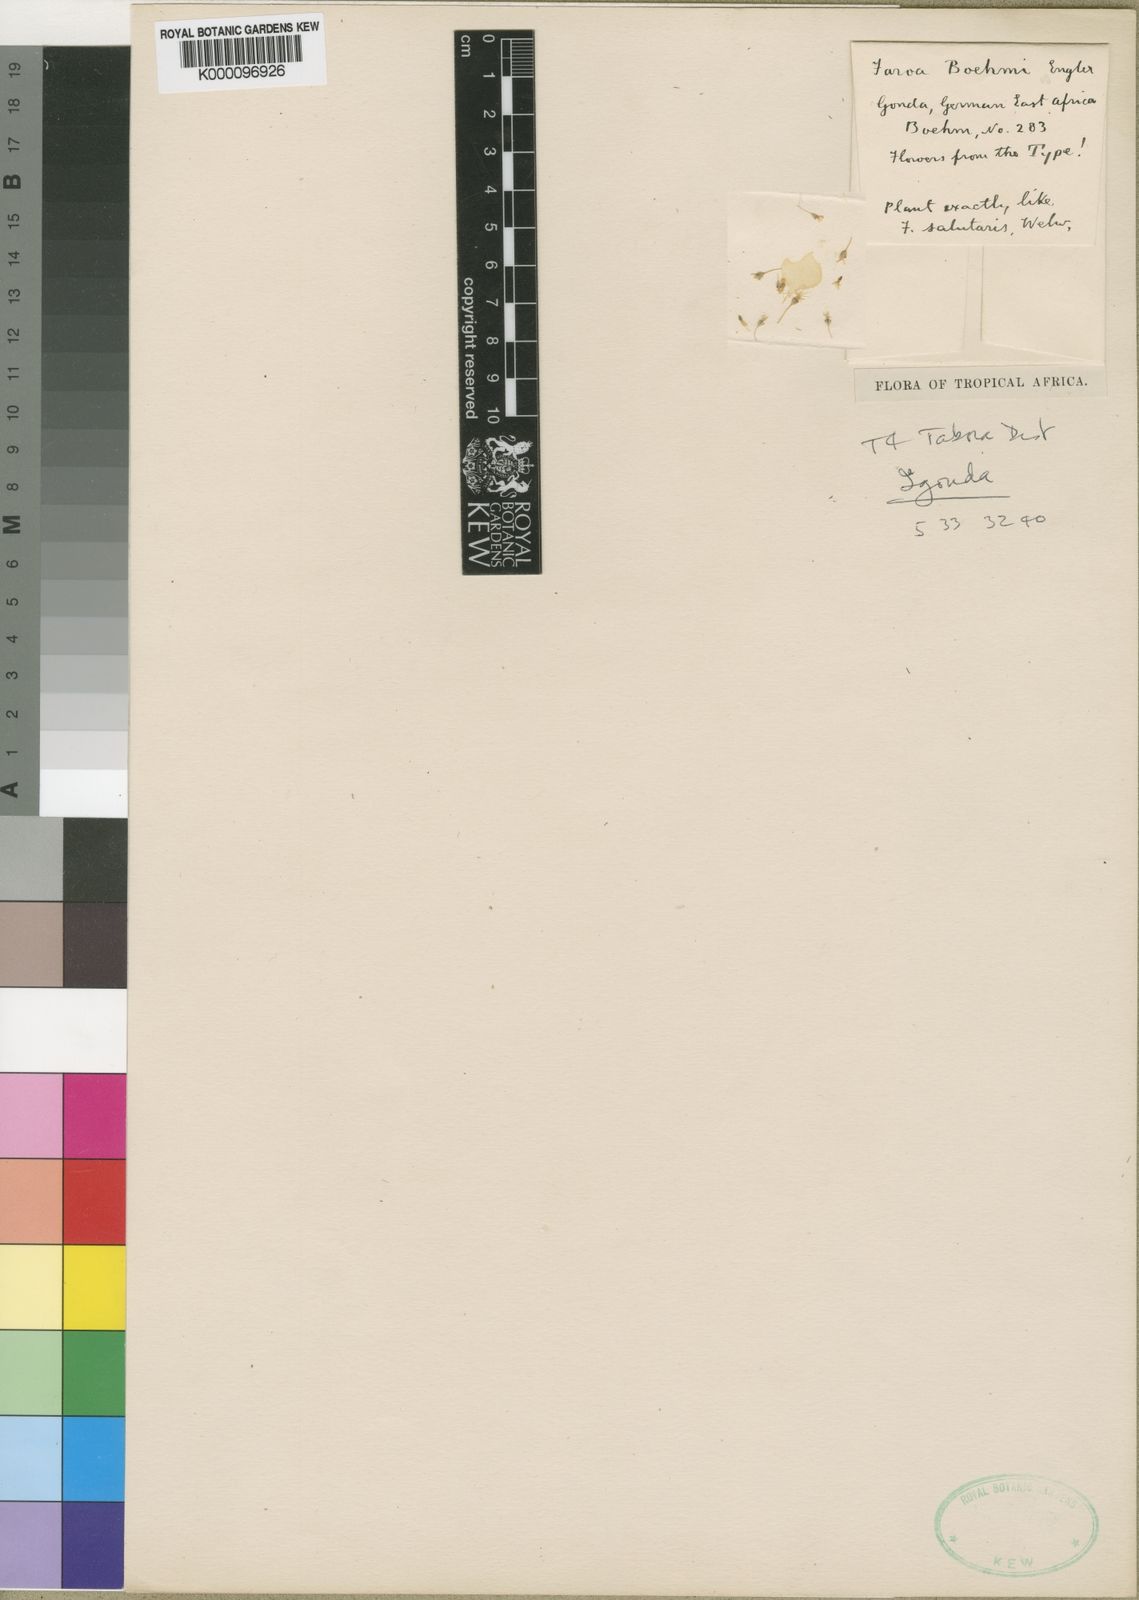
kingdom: Plantae
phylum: Tracheophyta
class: Magnoliopsida
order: Gentianales
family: Gentianaceae
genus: Faroa
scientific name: Faroa salutaris
